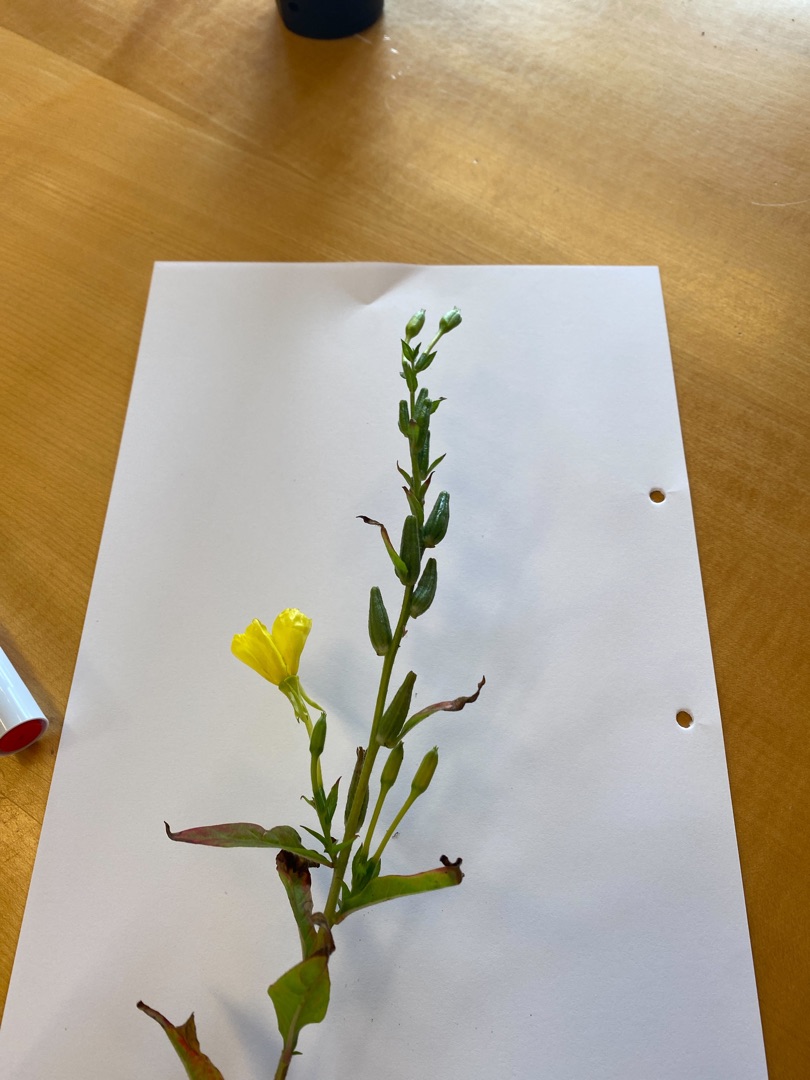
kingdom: Plantae
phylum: Tracheophyta
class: Magnoliopsida
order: Myrtales
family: Onagraceae
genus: Oenothera
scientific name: Oenothera biennis
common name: Toårig natlys
